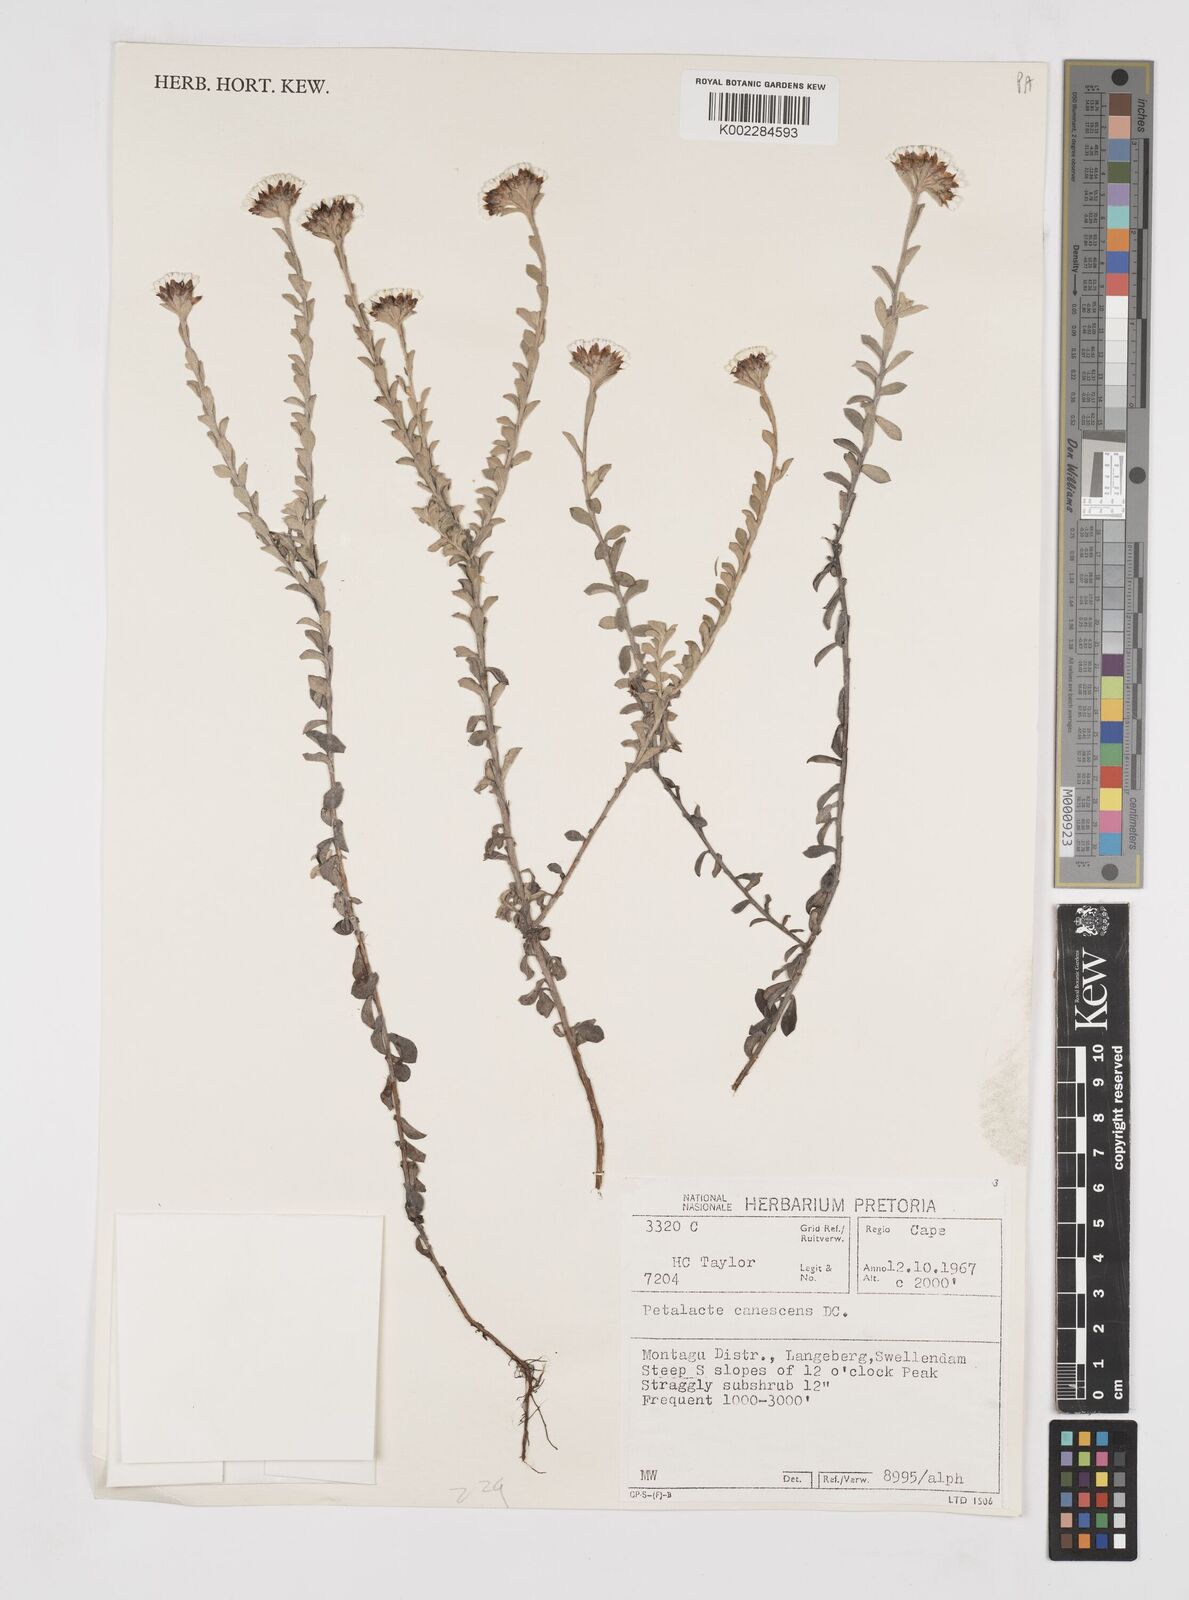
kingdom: Plantae
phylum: Tracheophyta
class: Magnoliopsida
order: Asterales
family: Asteraceae
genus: Langebergia
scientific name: Langebergia canescens
